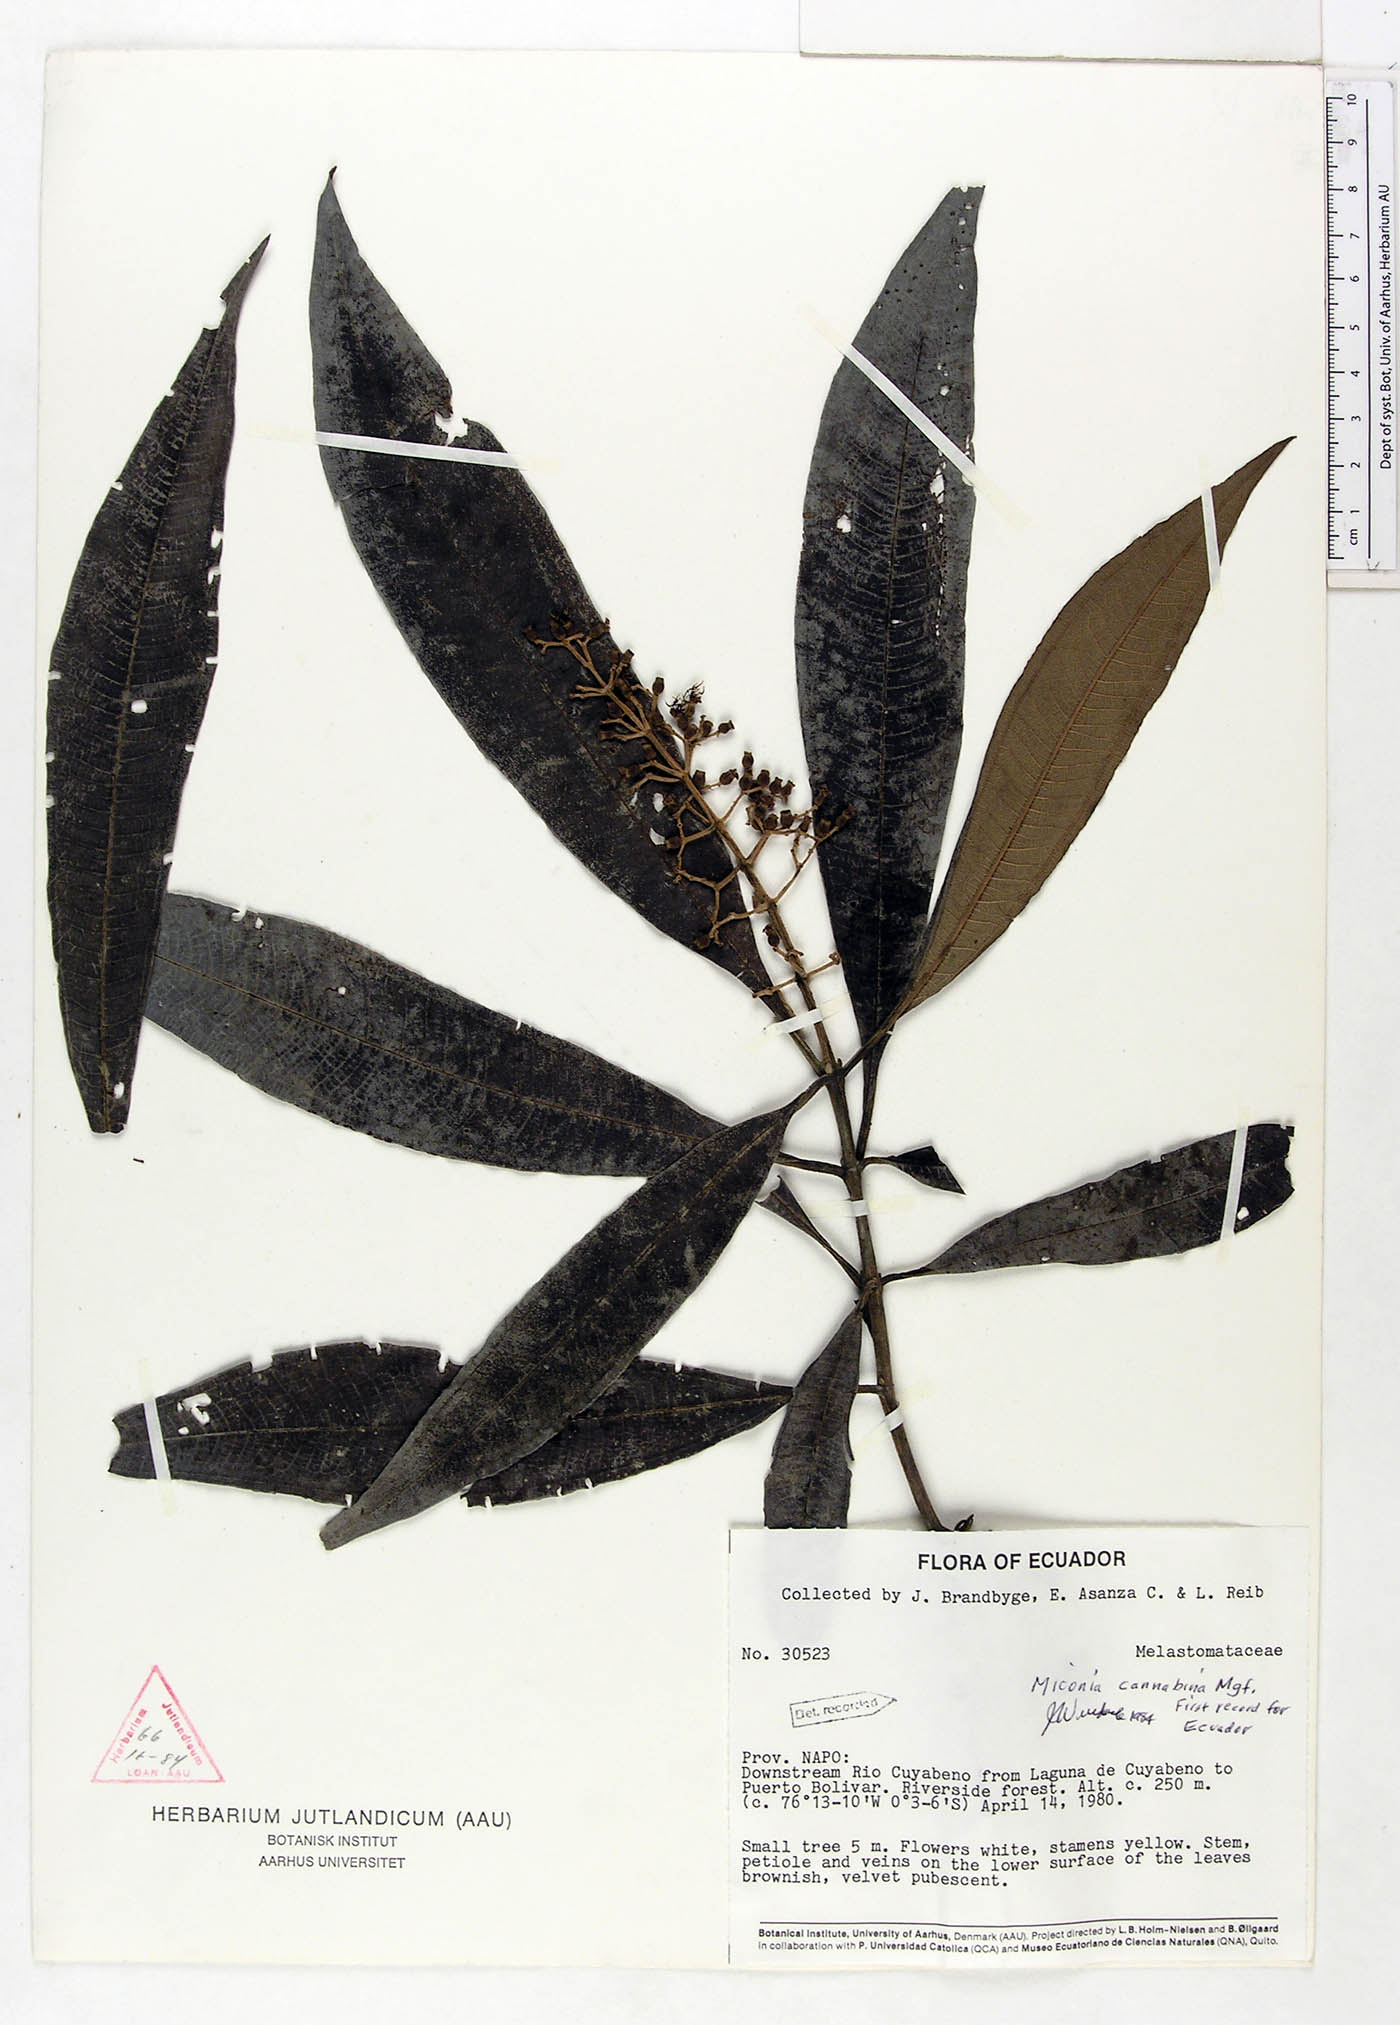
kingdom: Plantae
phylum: Tracheophyta
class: Magnoliopsida
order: Myrtales
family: Melastomataceae
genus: Miconia
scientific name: Miconia cannabina
